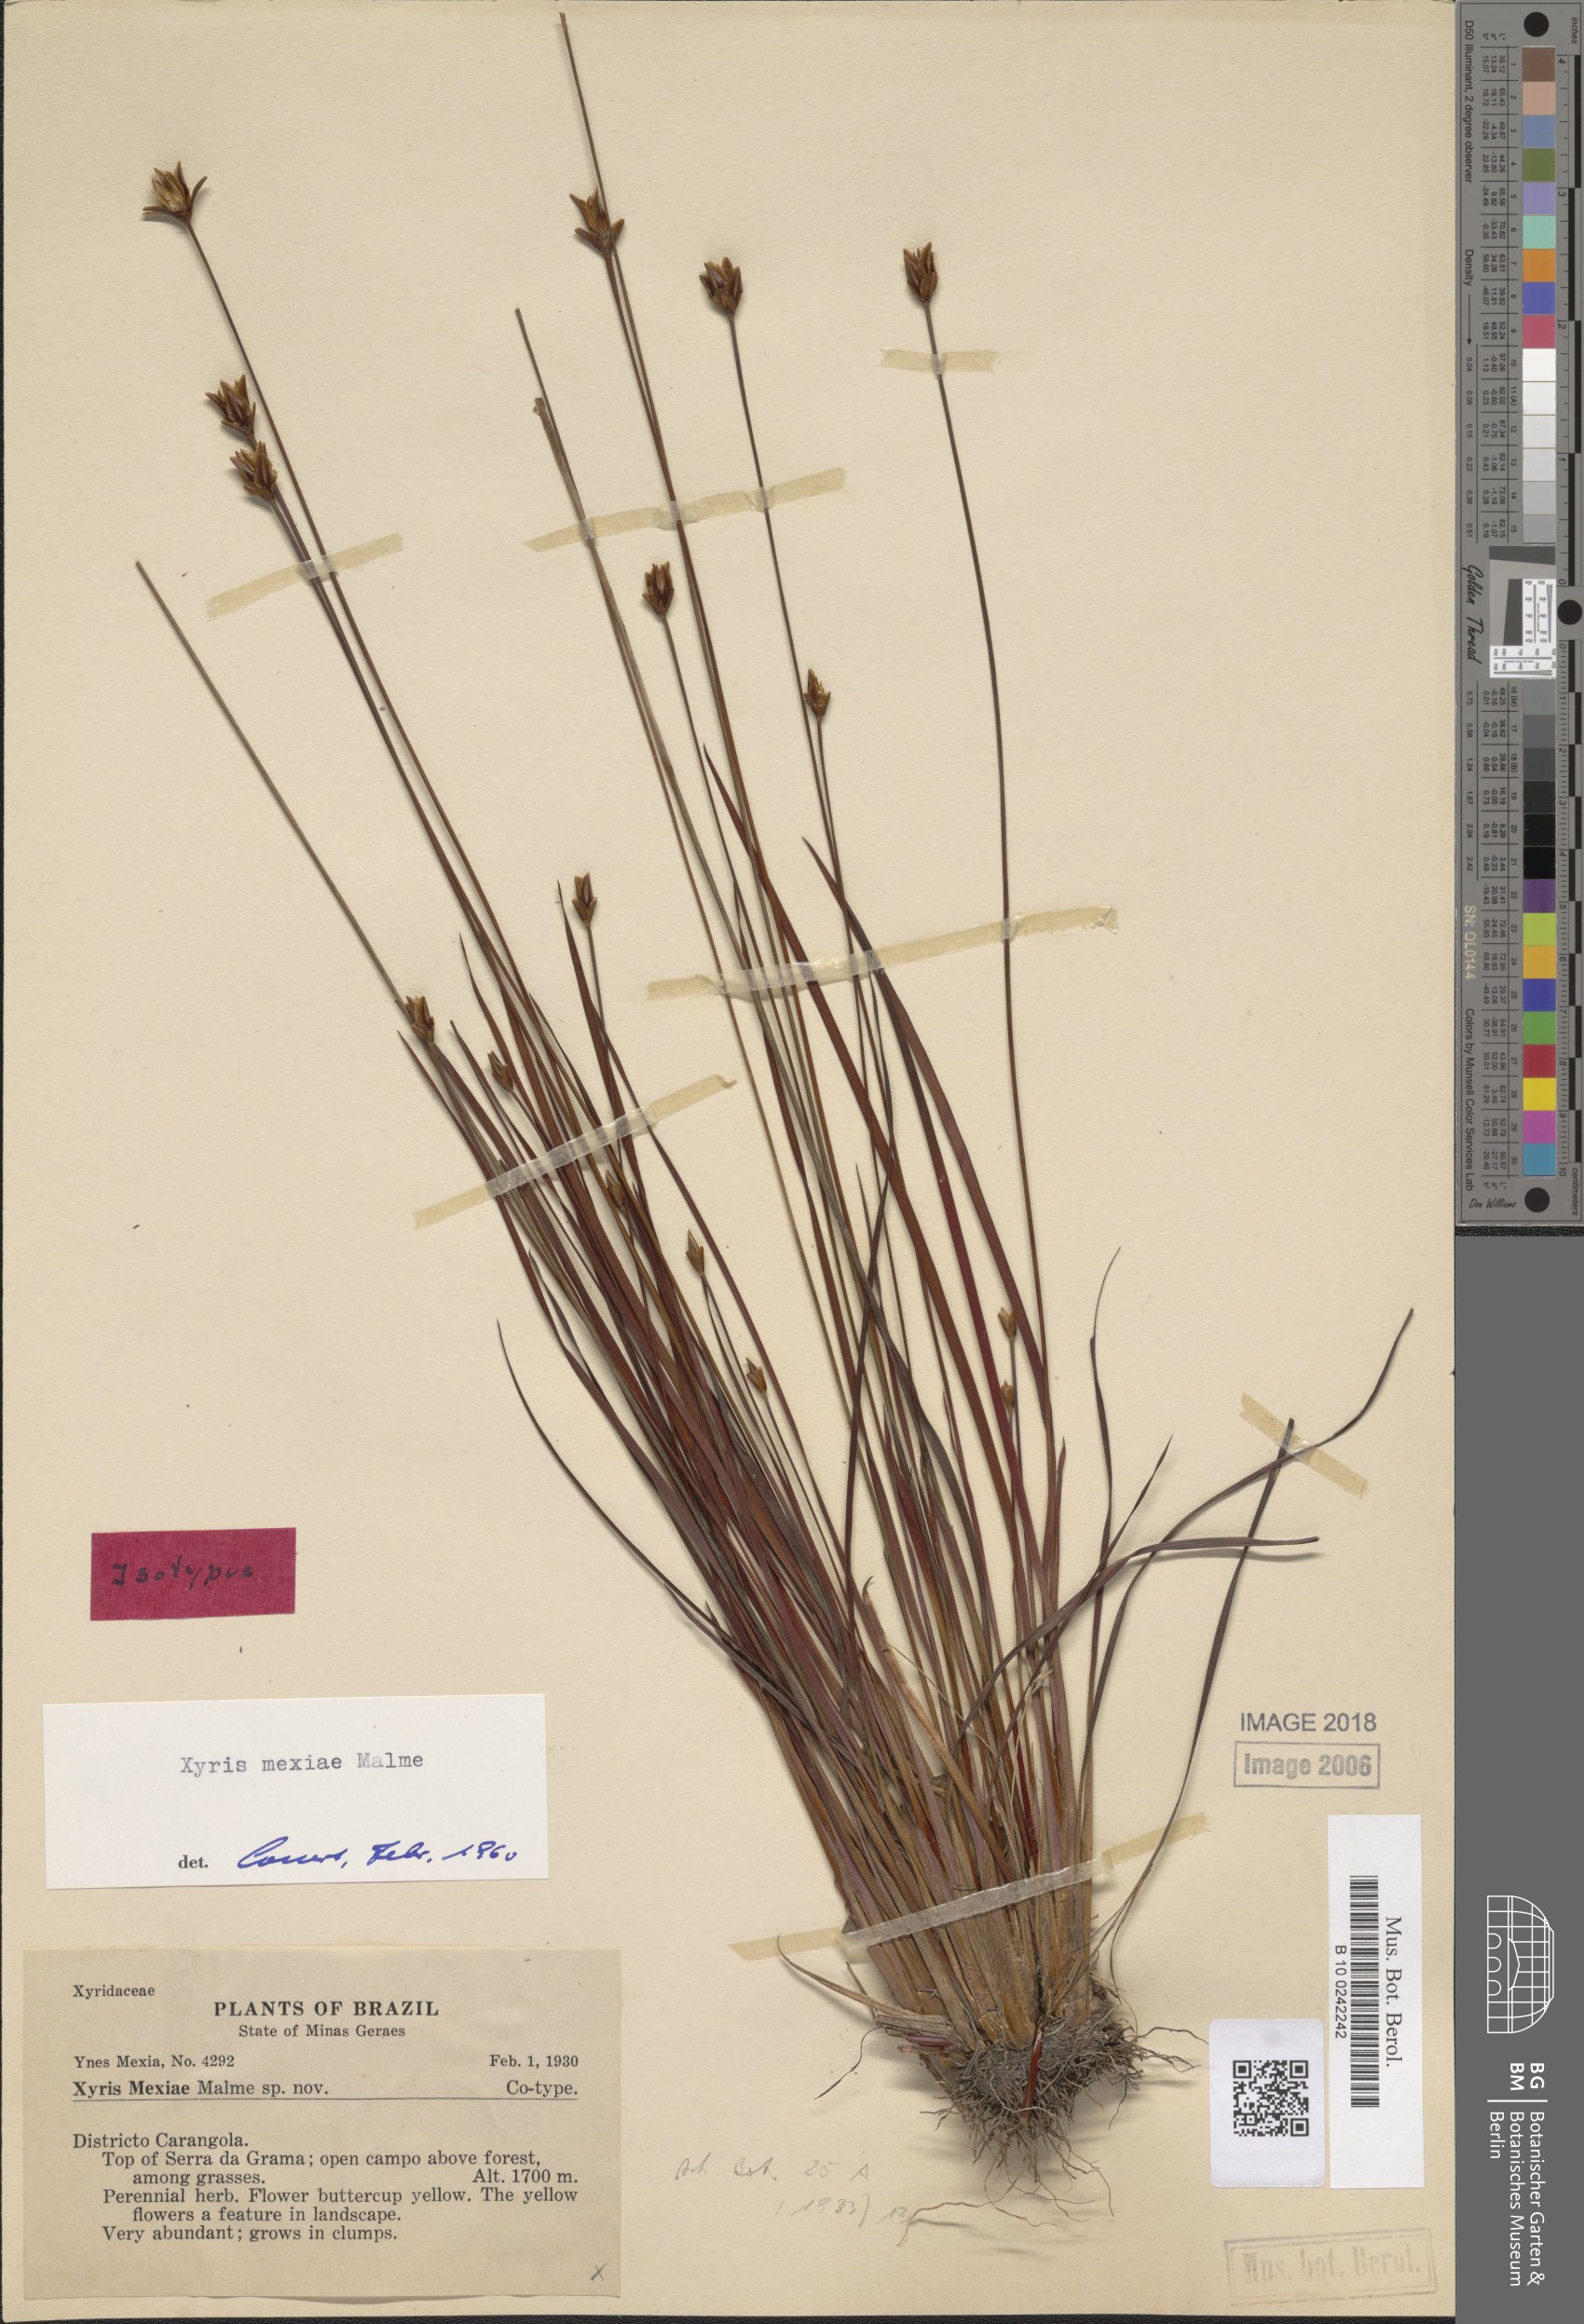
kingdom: Plantae
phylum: Tracheophyta
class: Liliopsida
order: Poales
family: Xyridaceae
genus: Xyris
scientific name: Xyris mexiae
